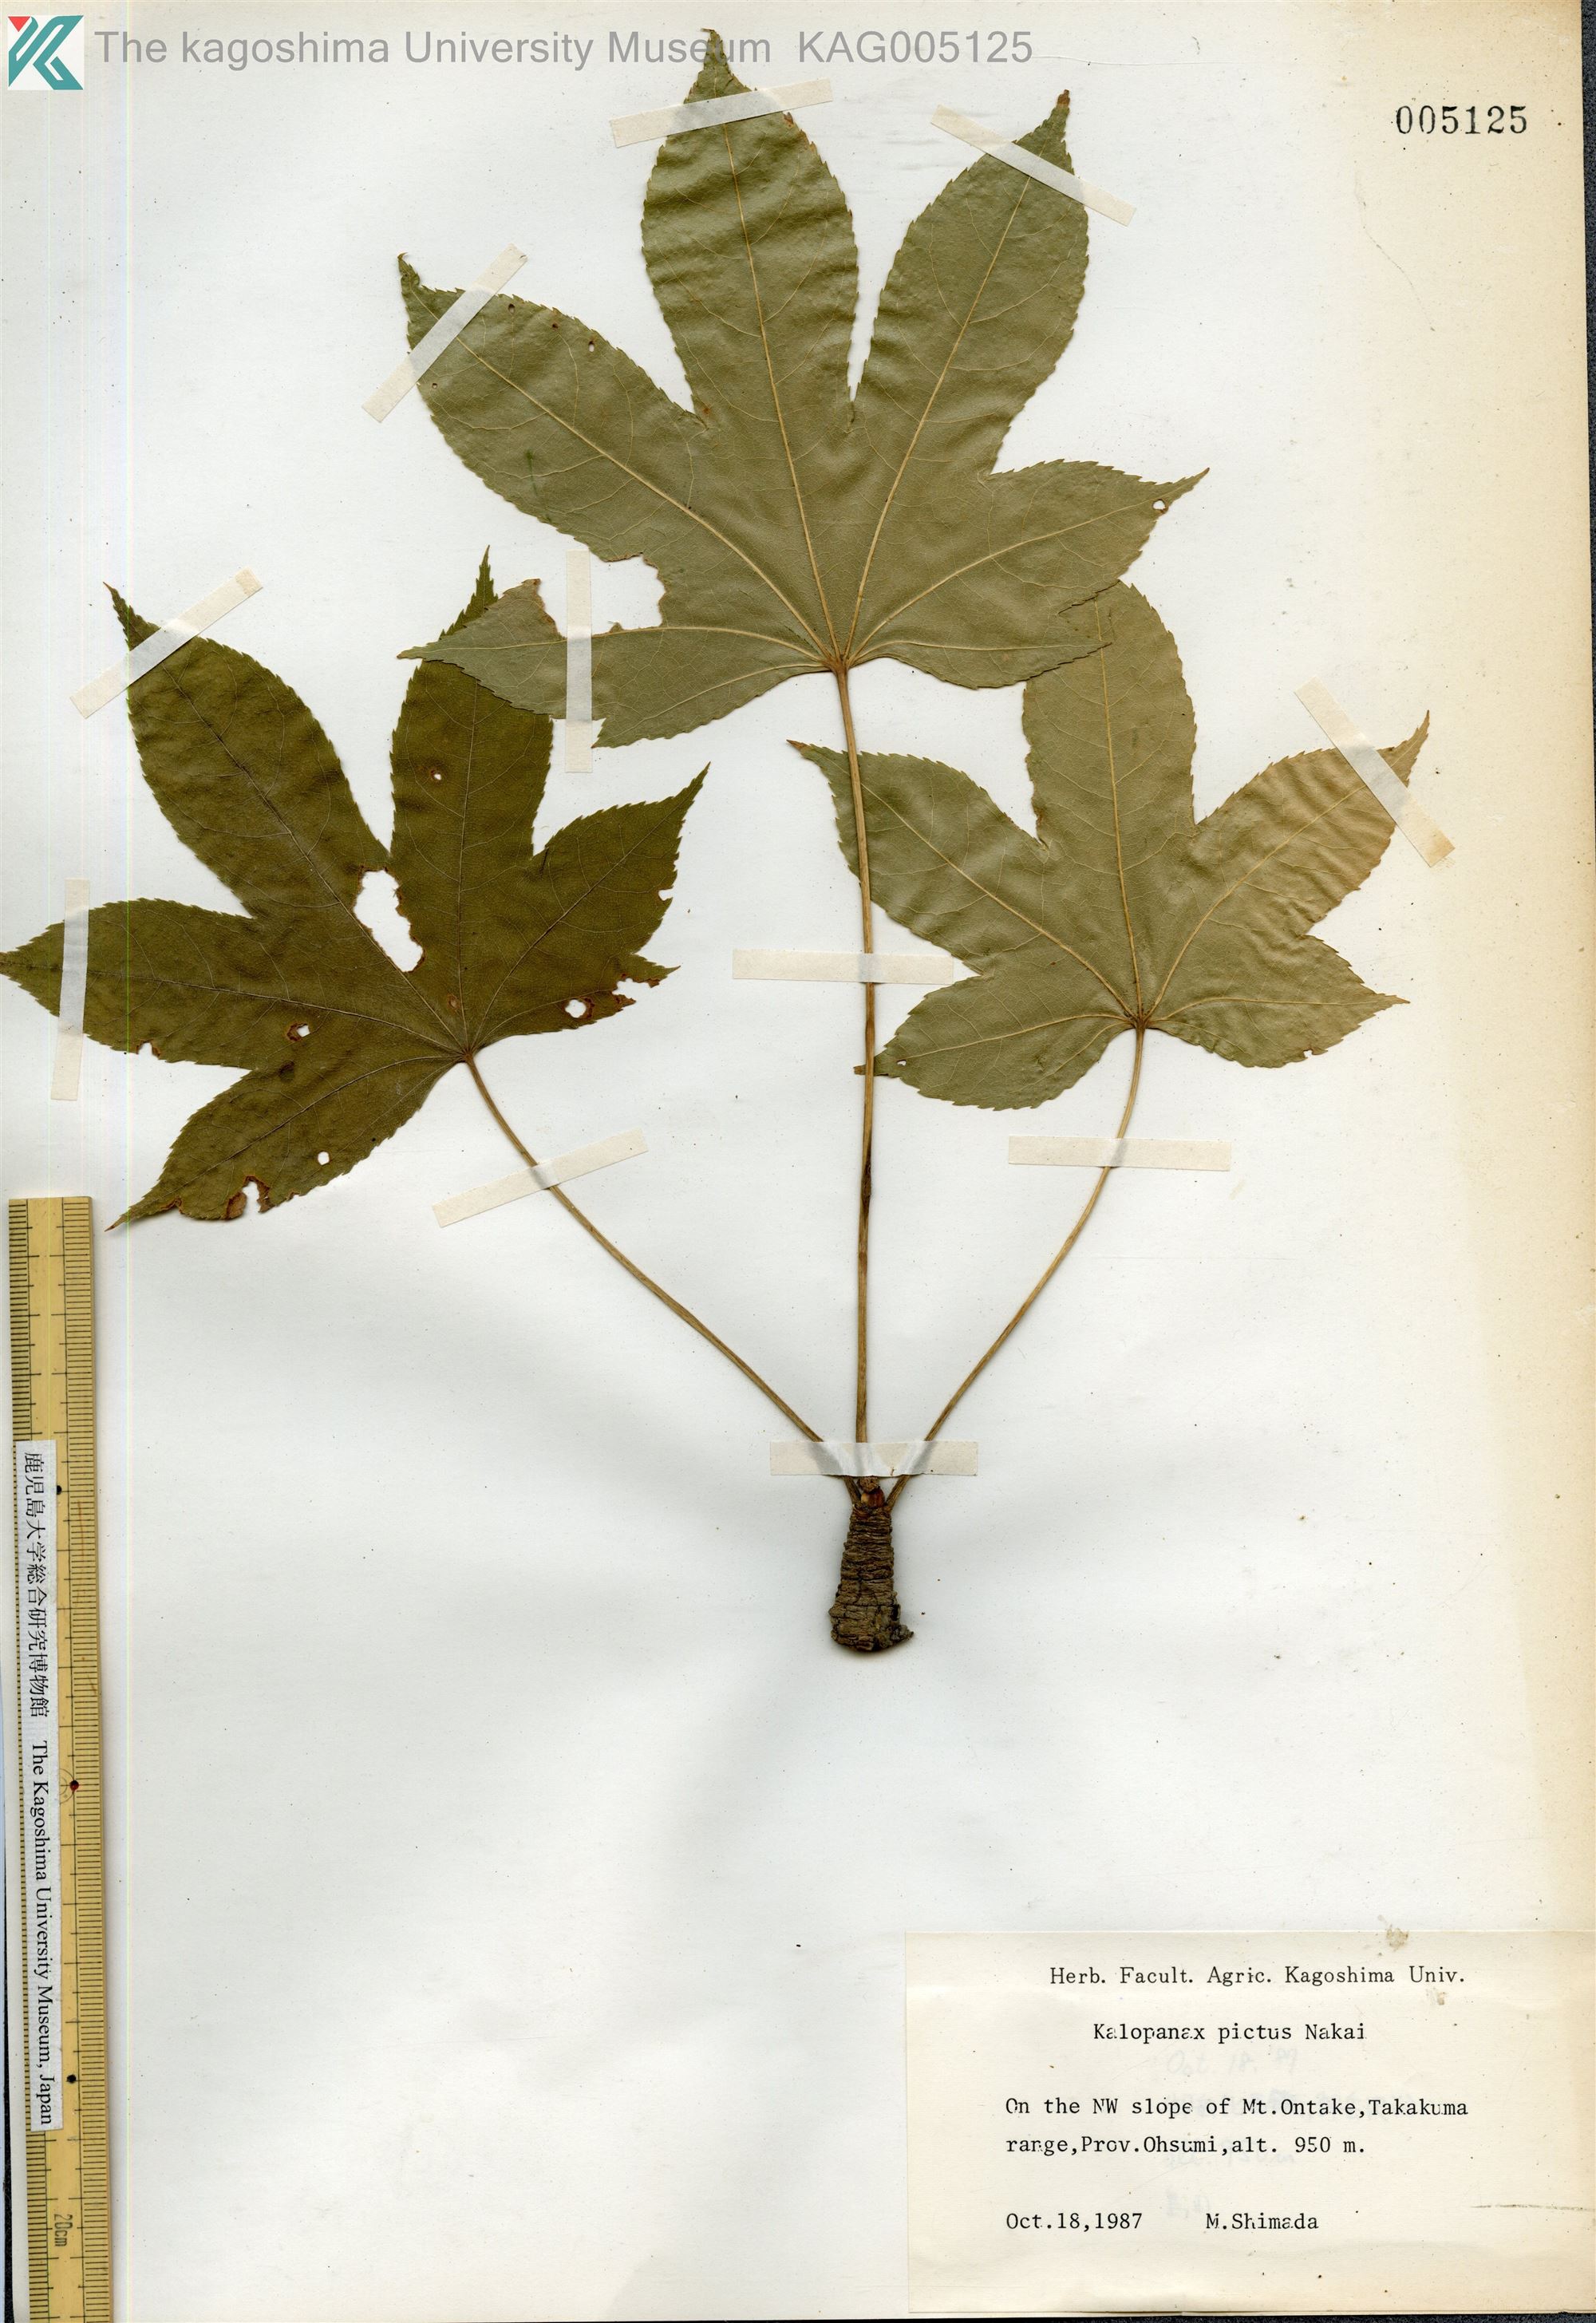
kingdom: Plantae
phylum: Tracheophyta
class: Magnoliopsida
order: Apiales
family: Araliaceae
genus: Kalopanax
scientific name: Kalopanax septemlobus
